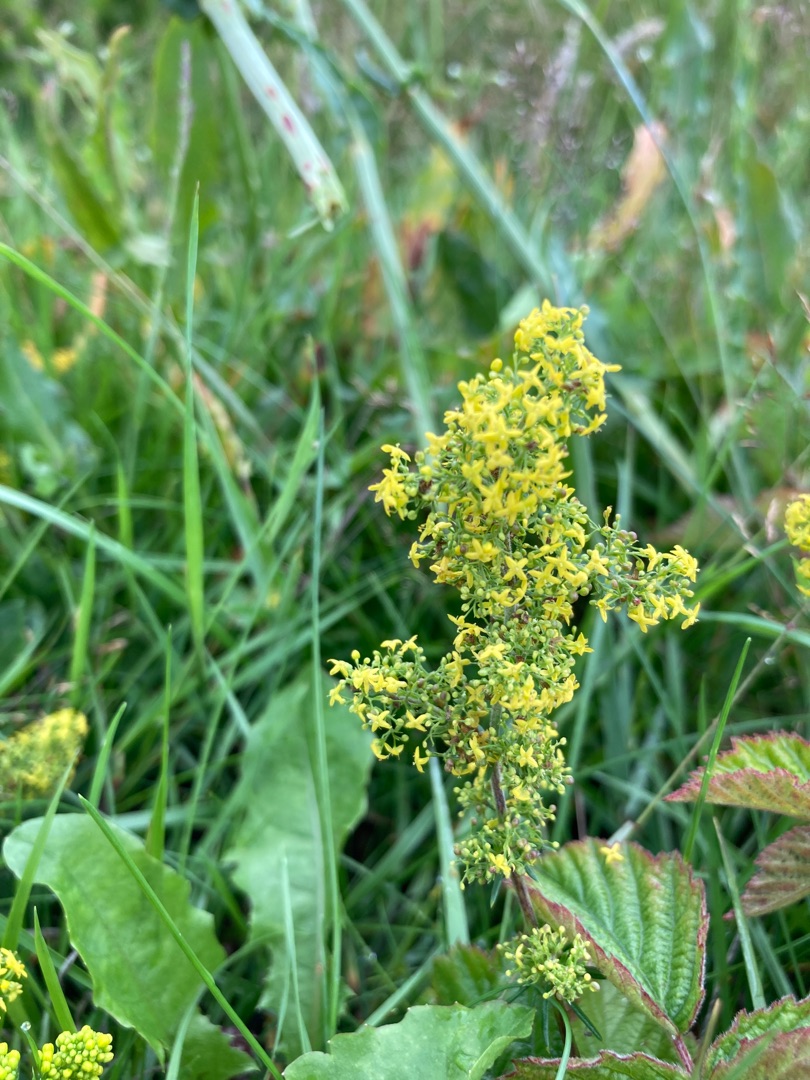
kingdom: Plantae
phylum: Tracheophyta
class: Magnoliopsida
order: Gentianales
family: Rubiaceae
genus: Galium
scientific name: Galium verum
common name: Gul snerre
